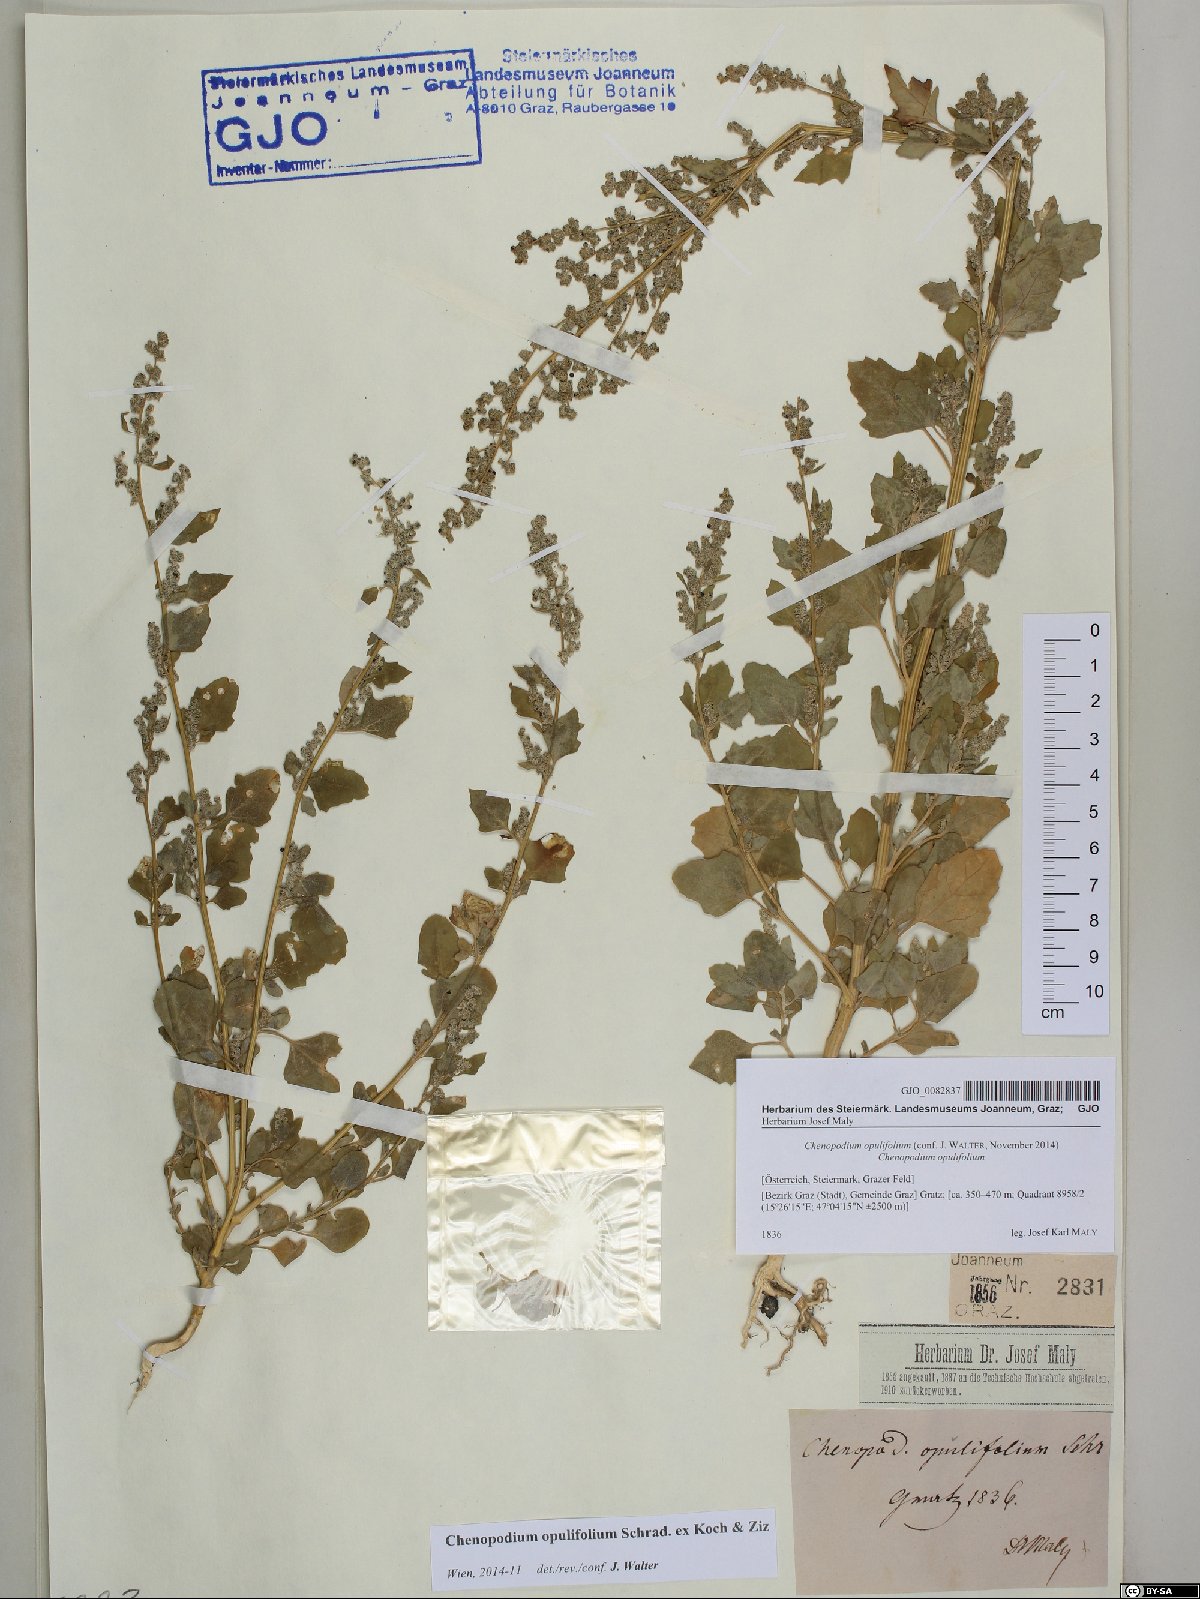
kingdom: Plantae
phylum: Tracheophyta
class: Magnoliopsida
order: Caryophyllales
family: Amaranthaceae
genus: Chenopodium
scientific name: Chenopodium opulifolium
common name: Grey goosefoot
